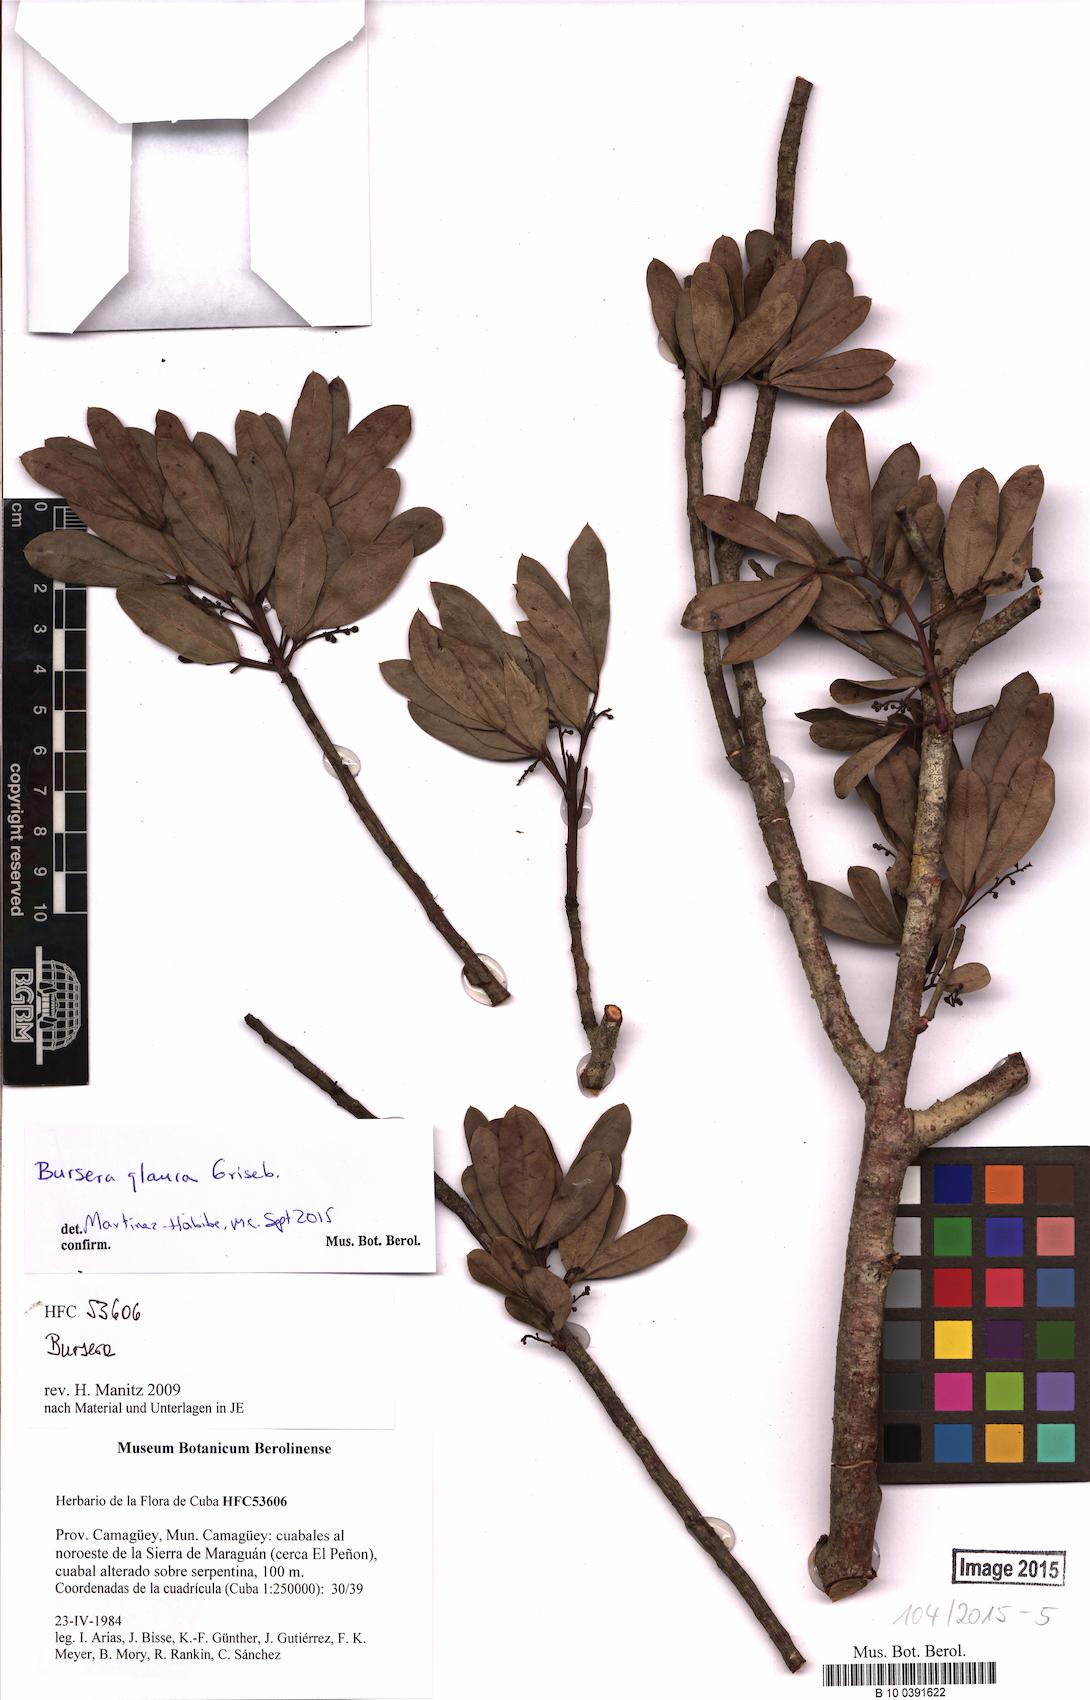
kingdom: Plantae
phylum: Tracheophyta
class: Magnoliopsida
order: Sapindales
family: Burseraceae
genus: Bursera
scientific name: Bursera glauca
